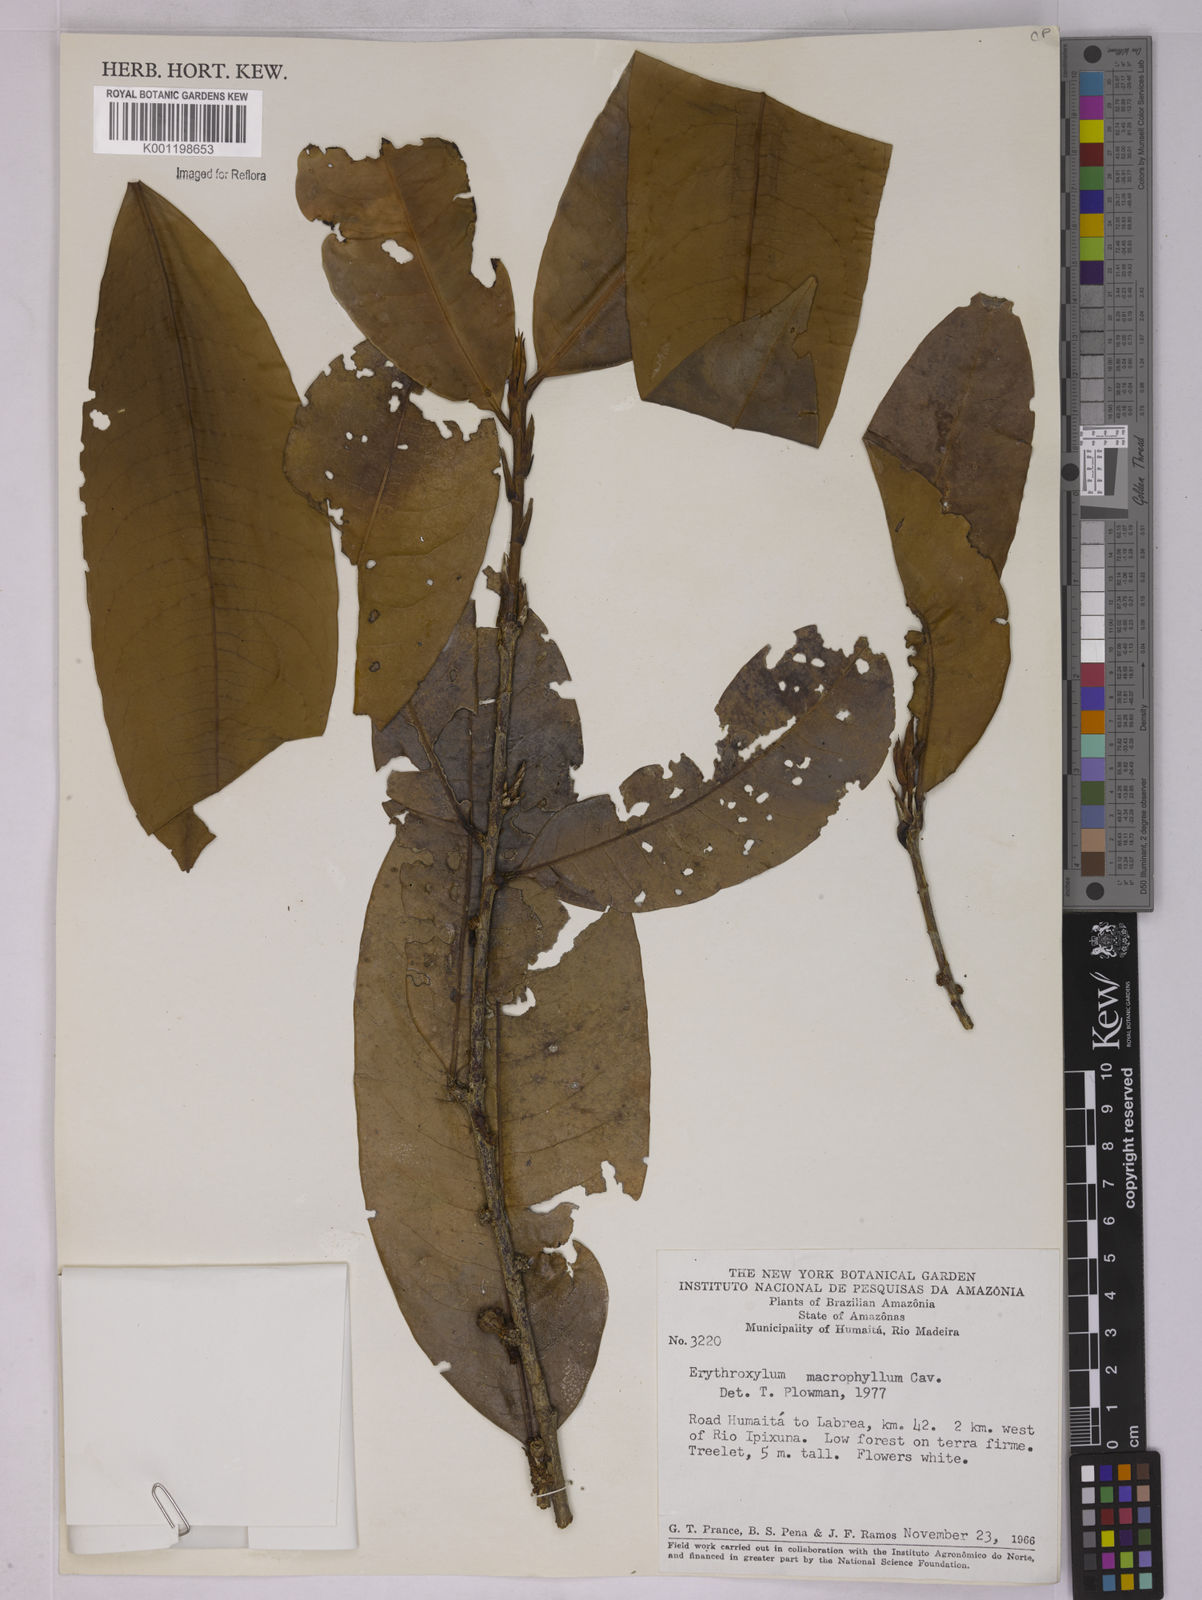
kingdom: Plantae
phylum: Tracheophyta
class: Magnoliopsida
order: Malpighiales
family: Erythroxylaceae
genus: Erythroxylum
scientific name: Erythroxylum macrophyllum
